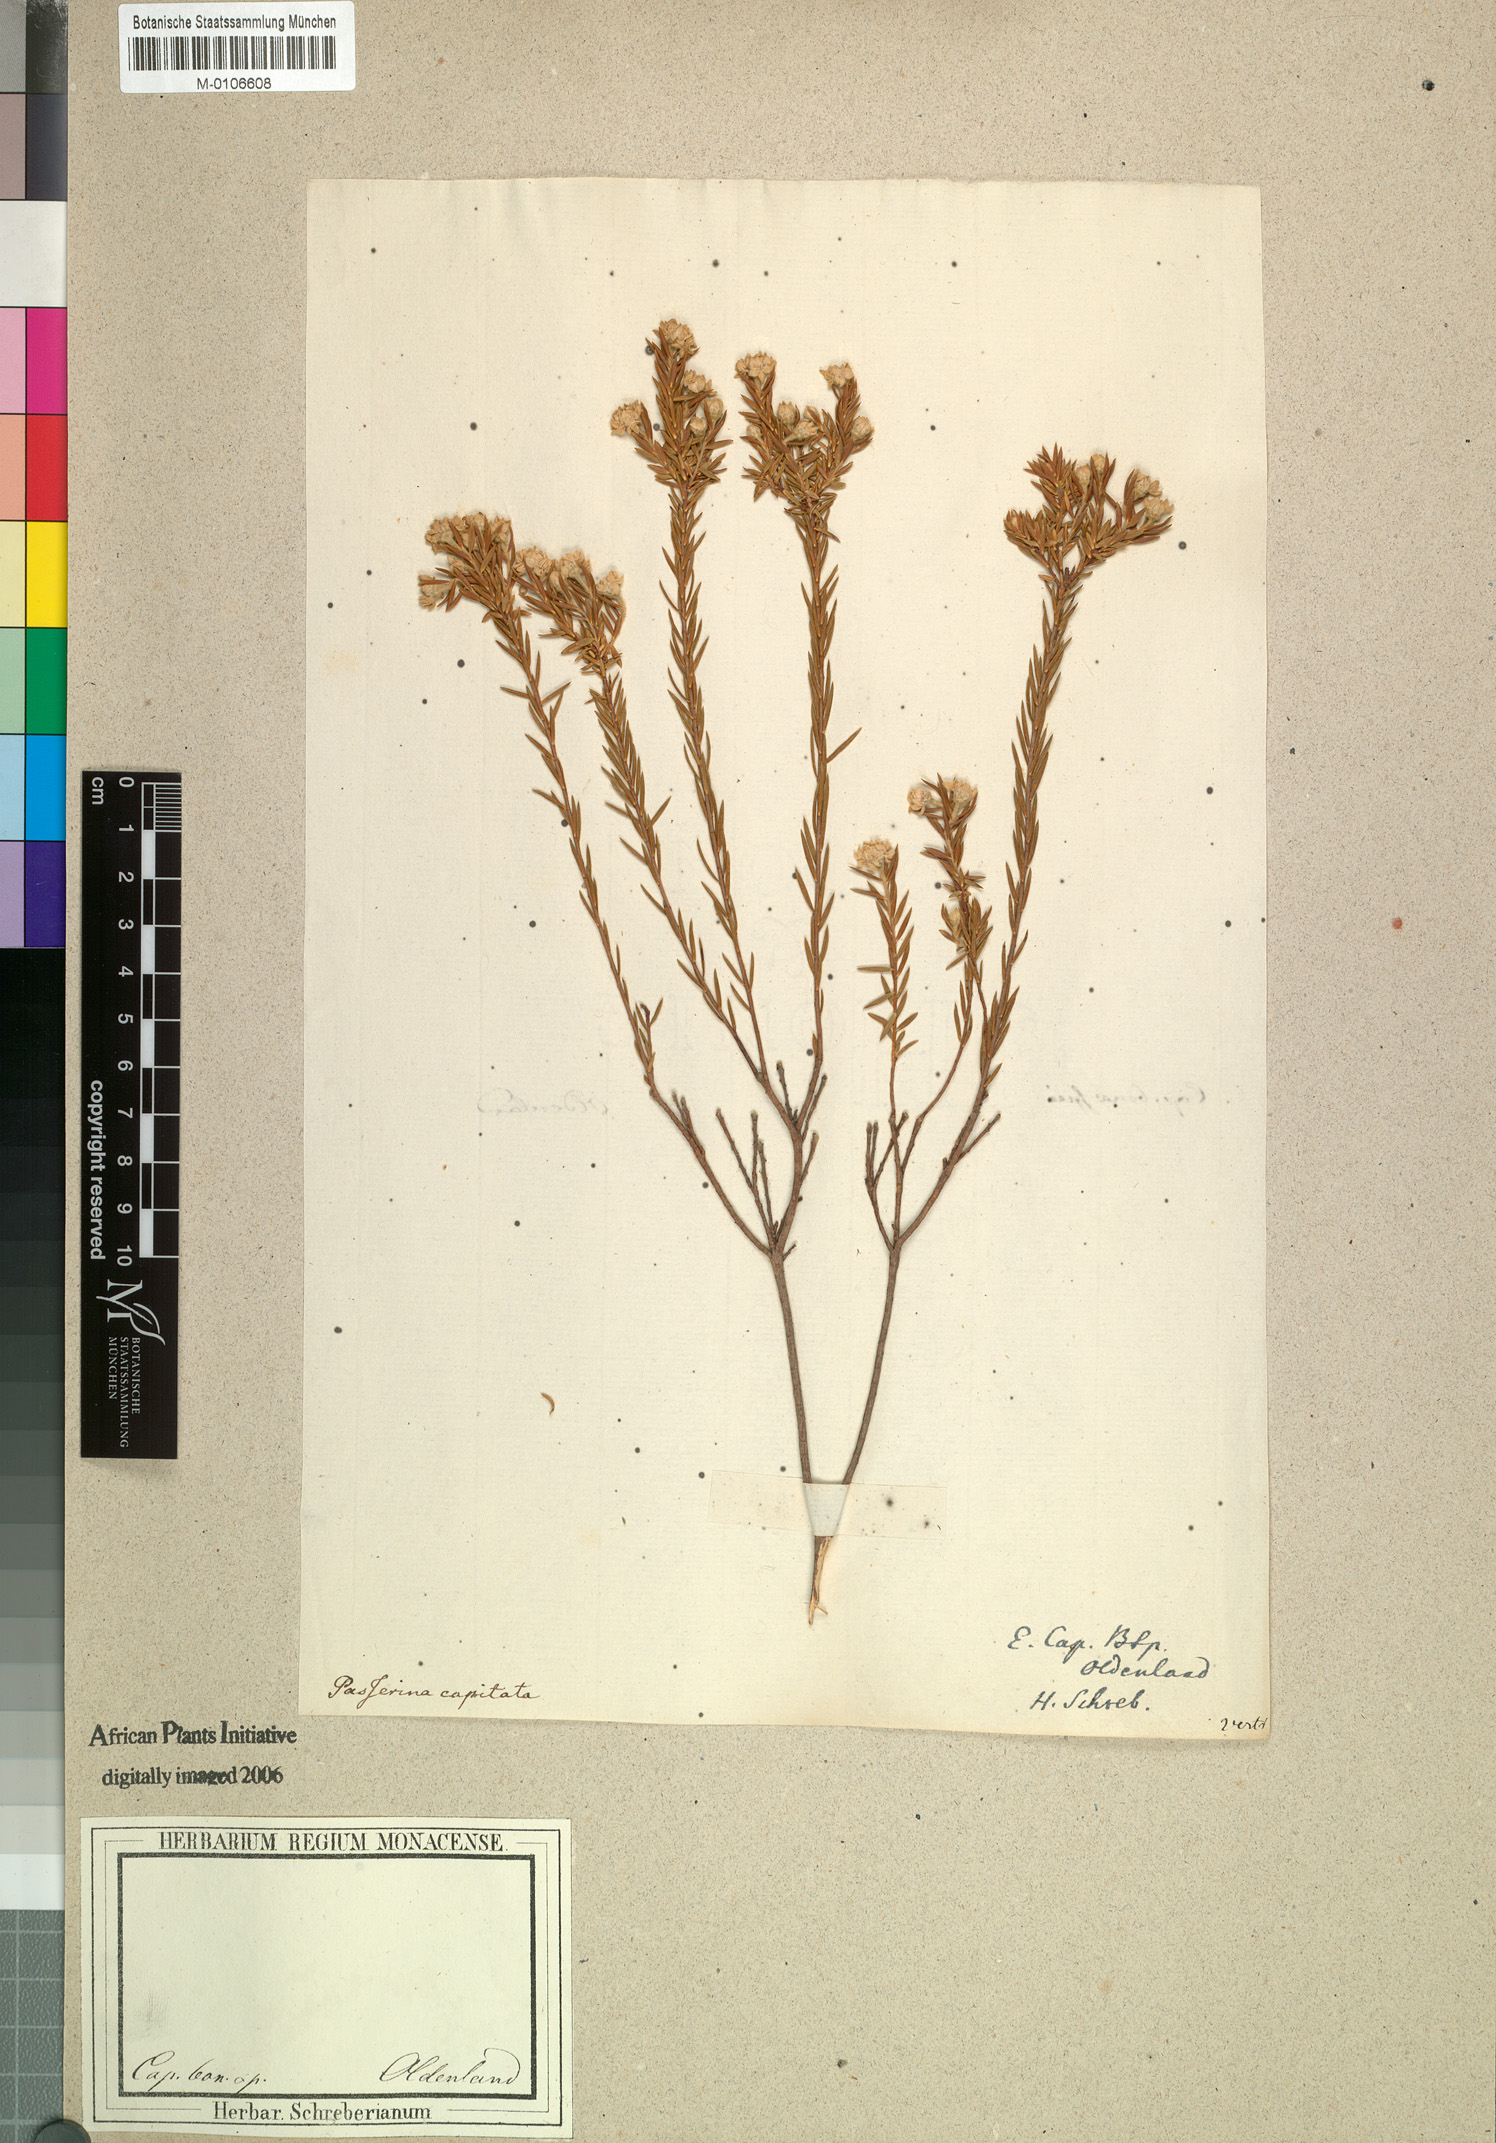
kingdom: Plantae
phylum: Tracheophyta
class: Magnoliopsida
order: Malvales
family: Thymelaeaceae
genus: Lachnaea
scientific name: Lachnaea capitata
